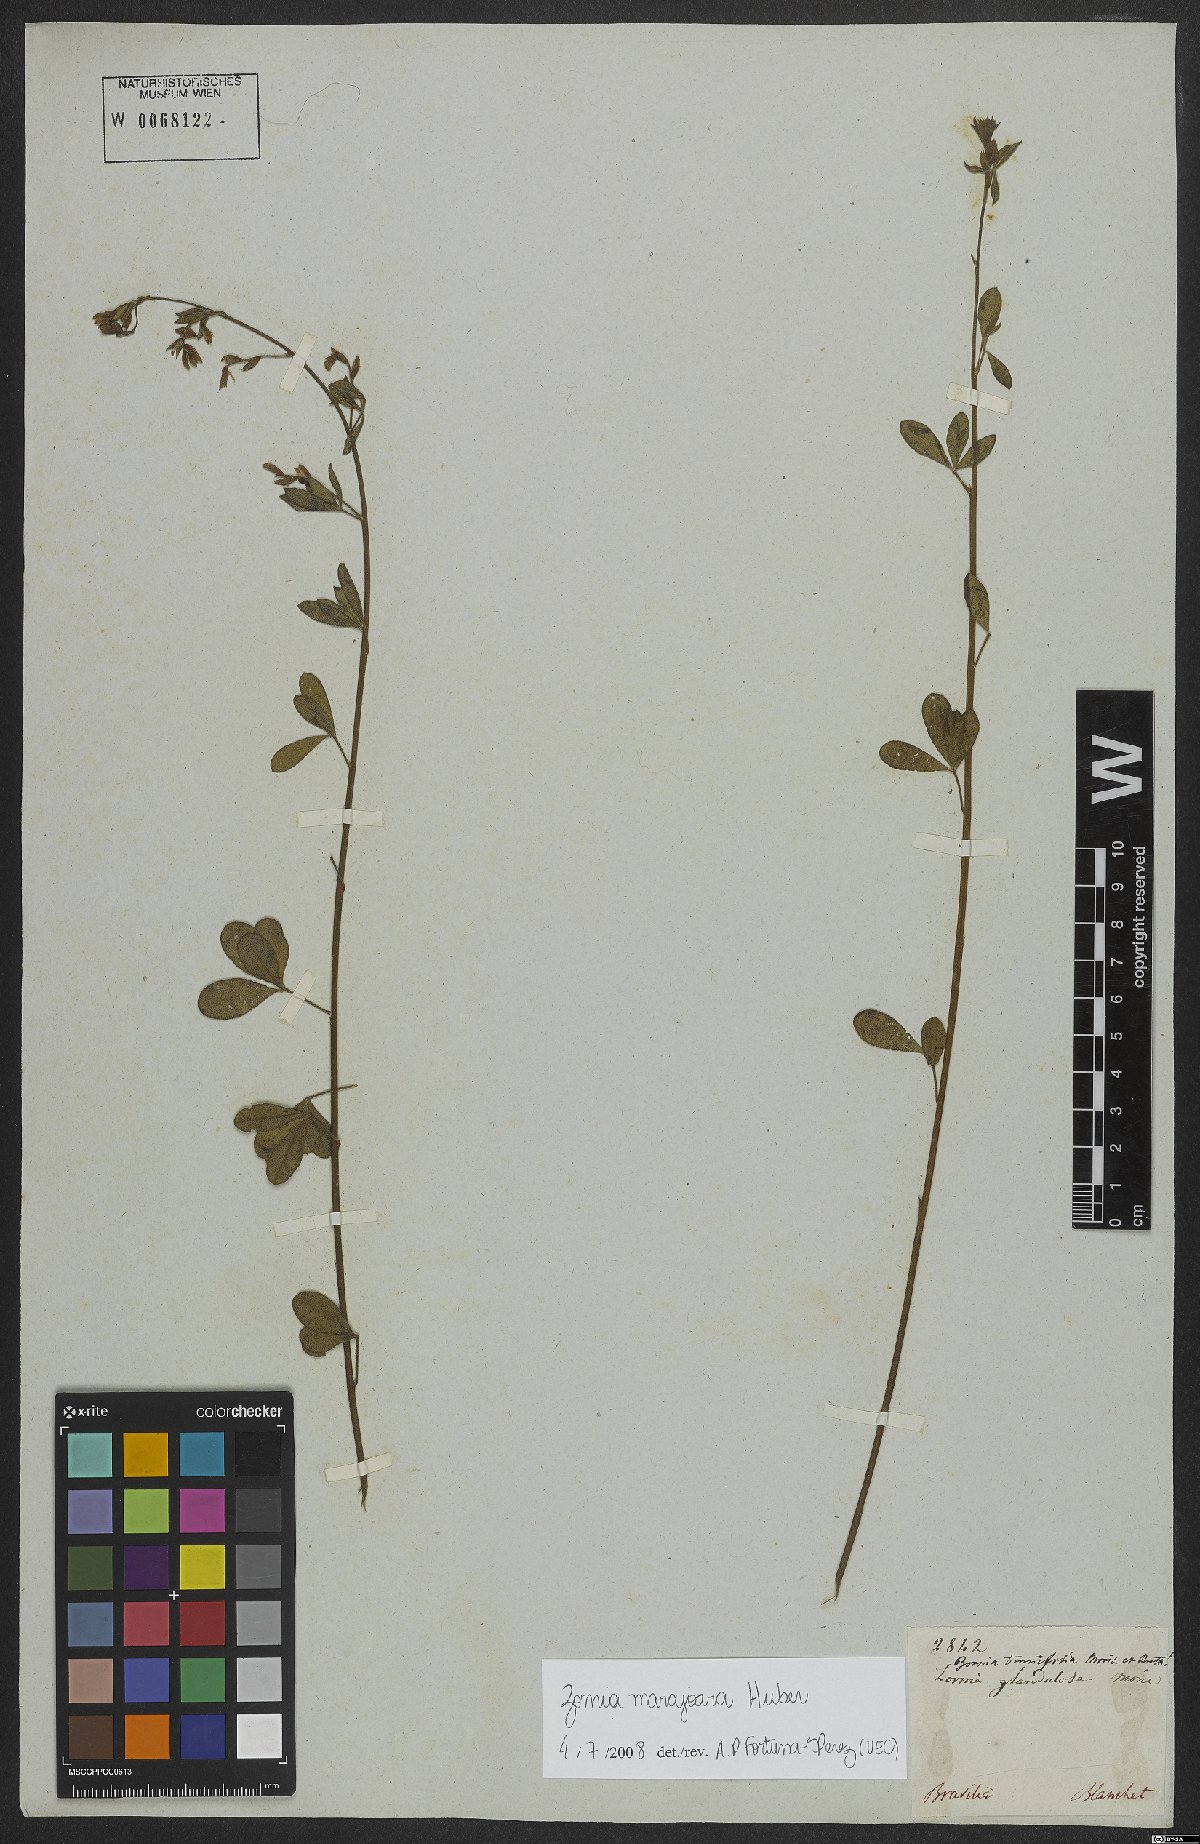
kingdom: Plantae
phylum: Tracheophyta
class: Magnoliopsida
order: Fabales
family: Fabaceae
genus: Zornia
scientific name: Zornia guanipensis
